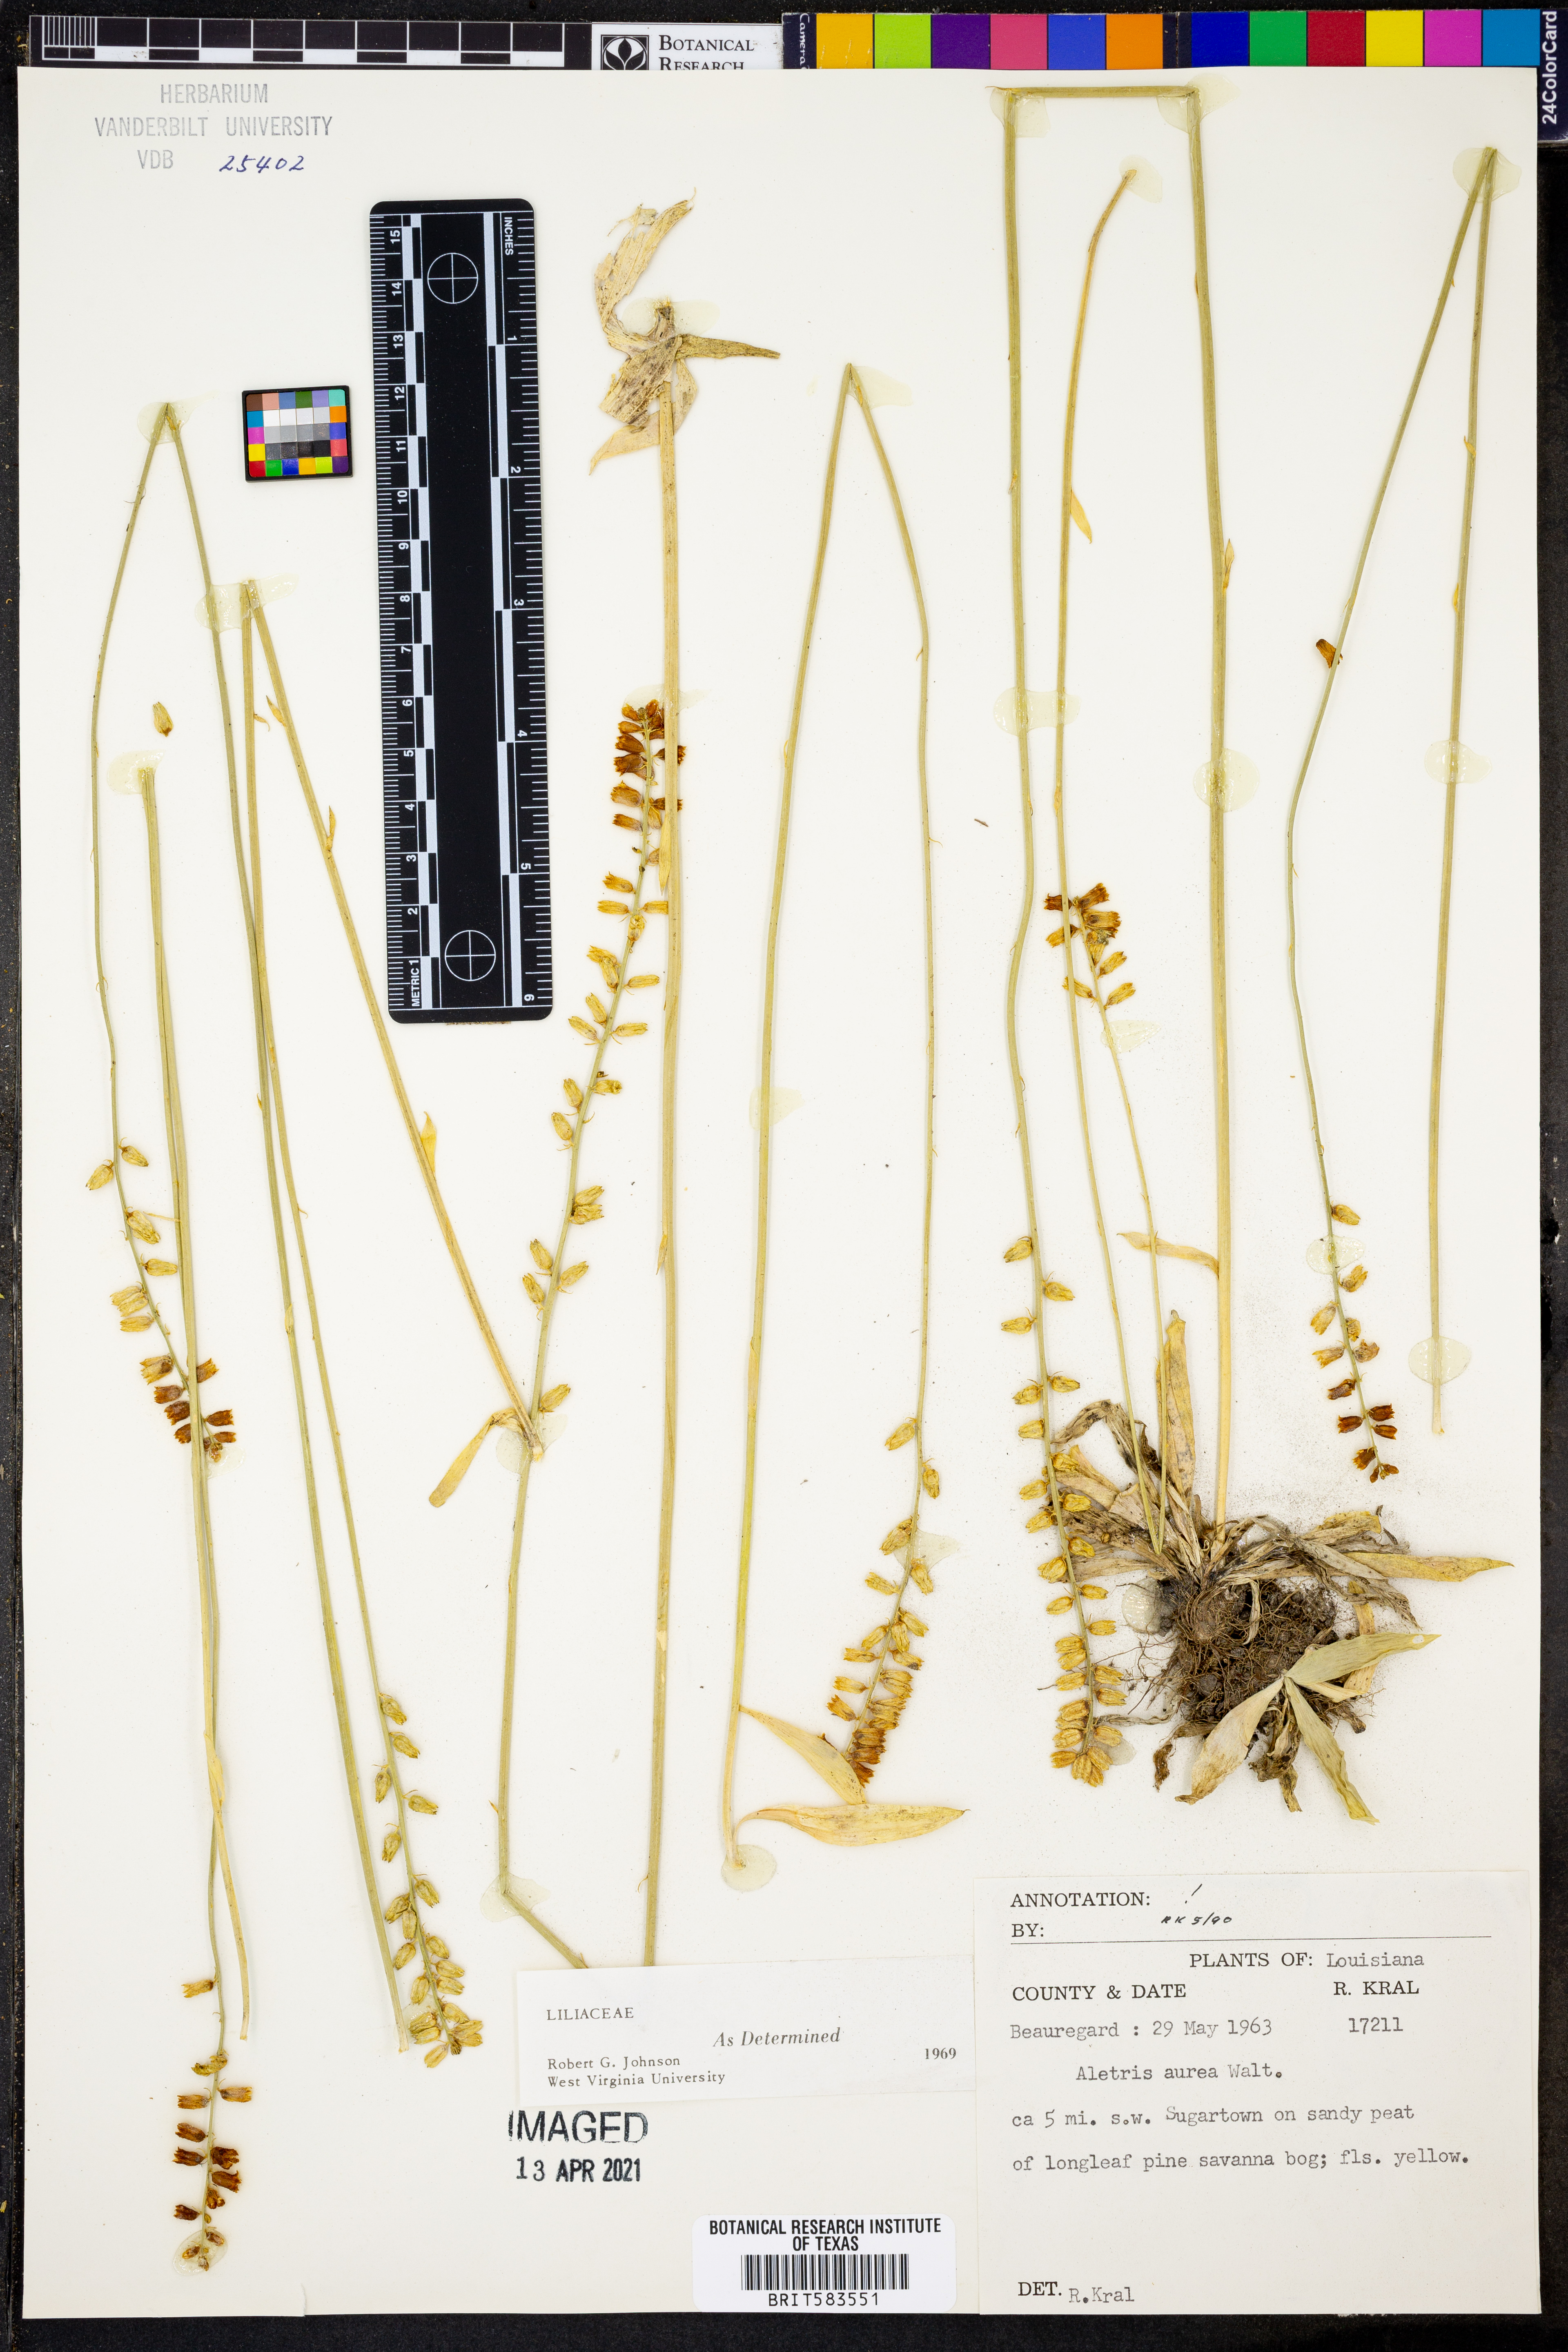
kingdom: Plantae
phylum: Tracheophyta
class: Liliopsida
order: Dioscoreales
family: Nartheciaceae
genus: Aletris
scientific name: Aletris aurea
